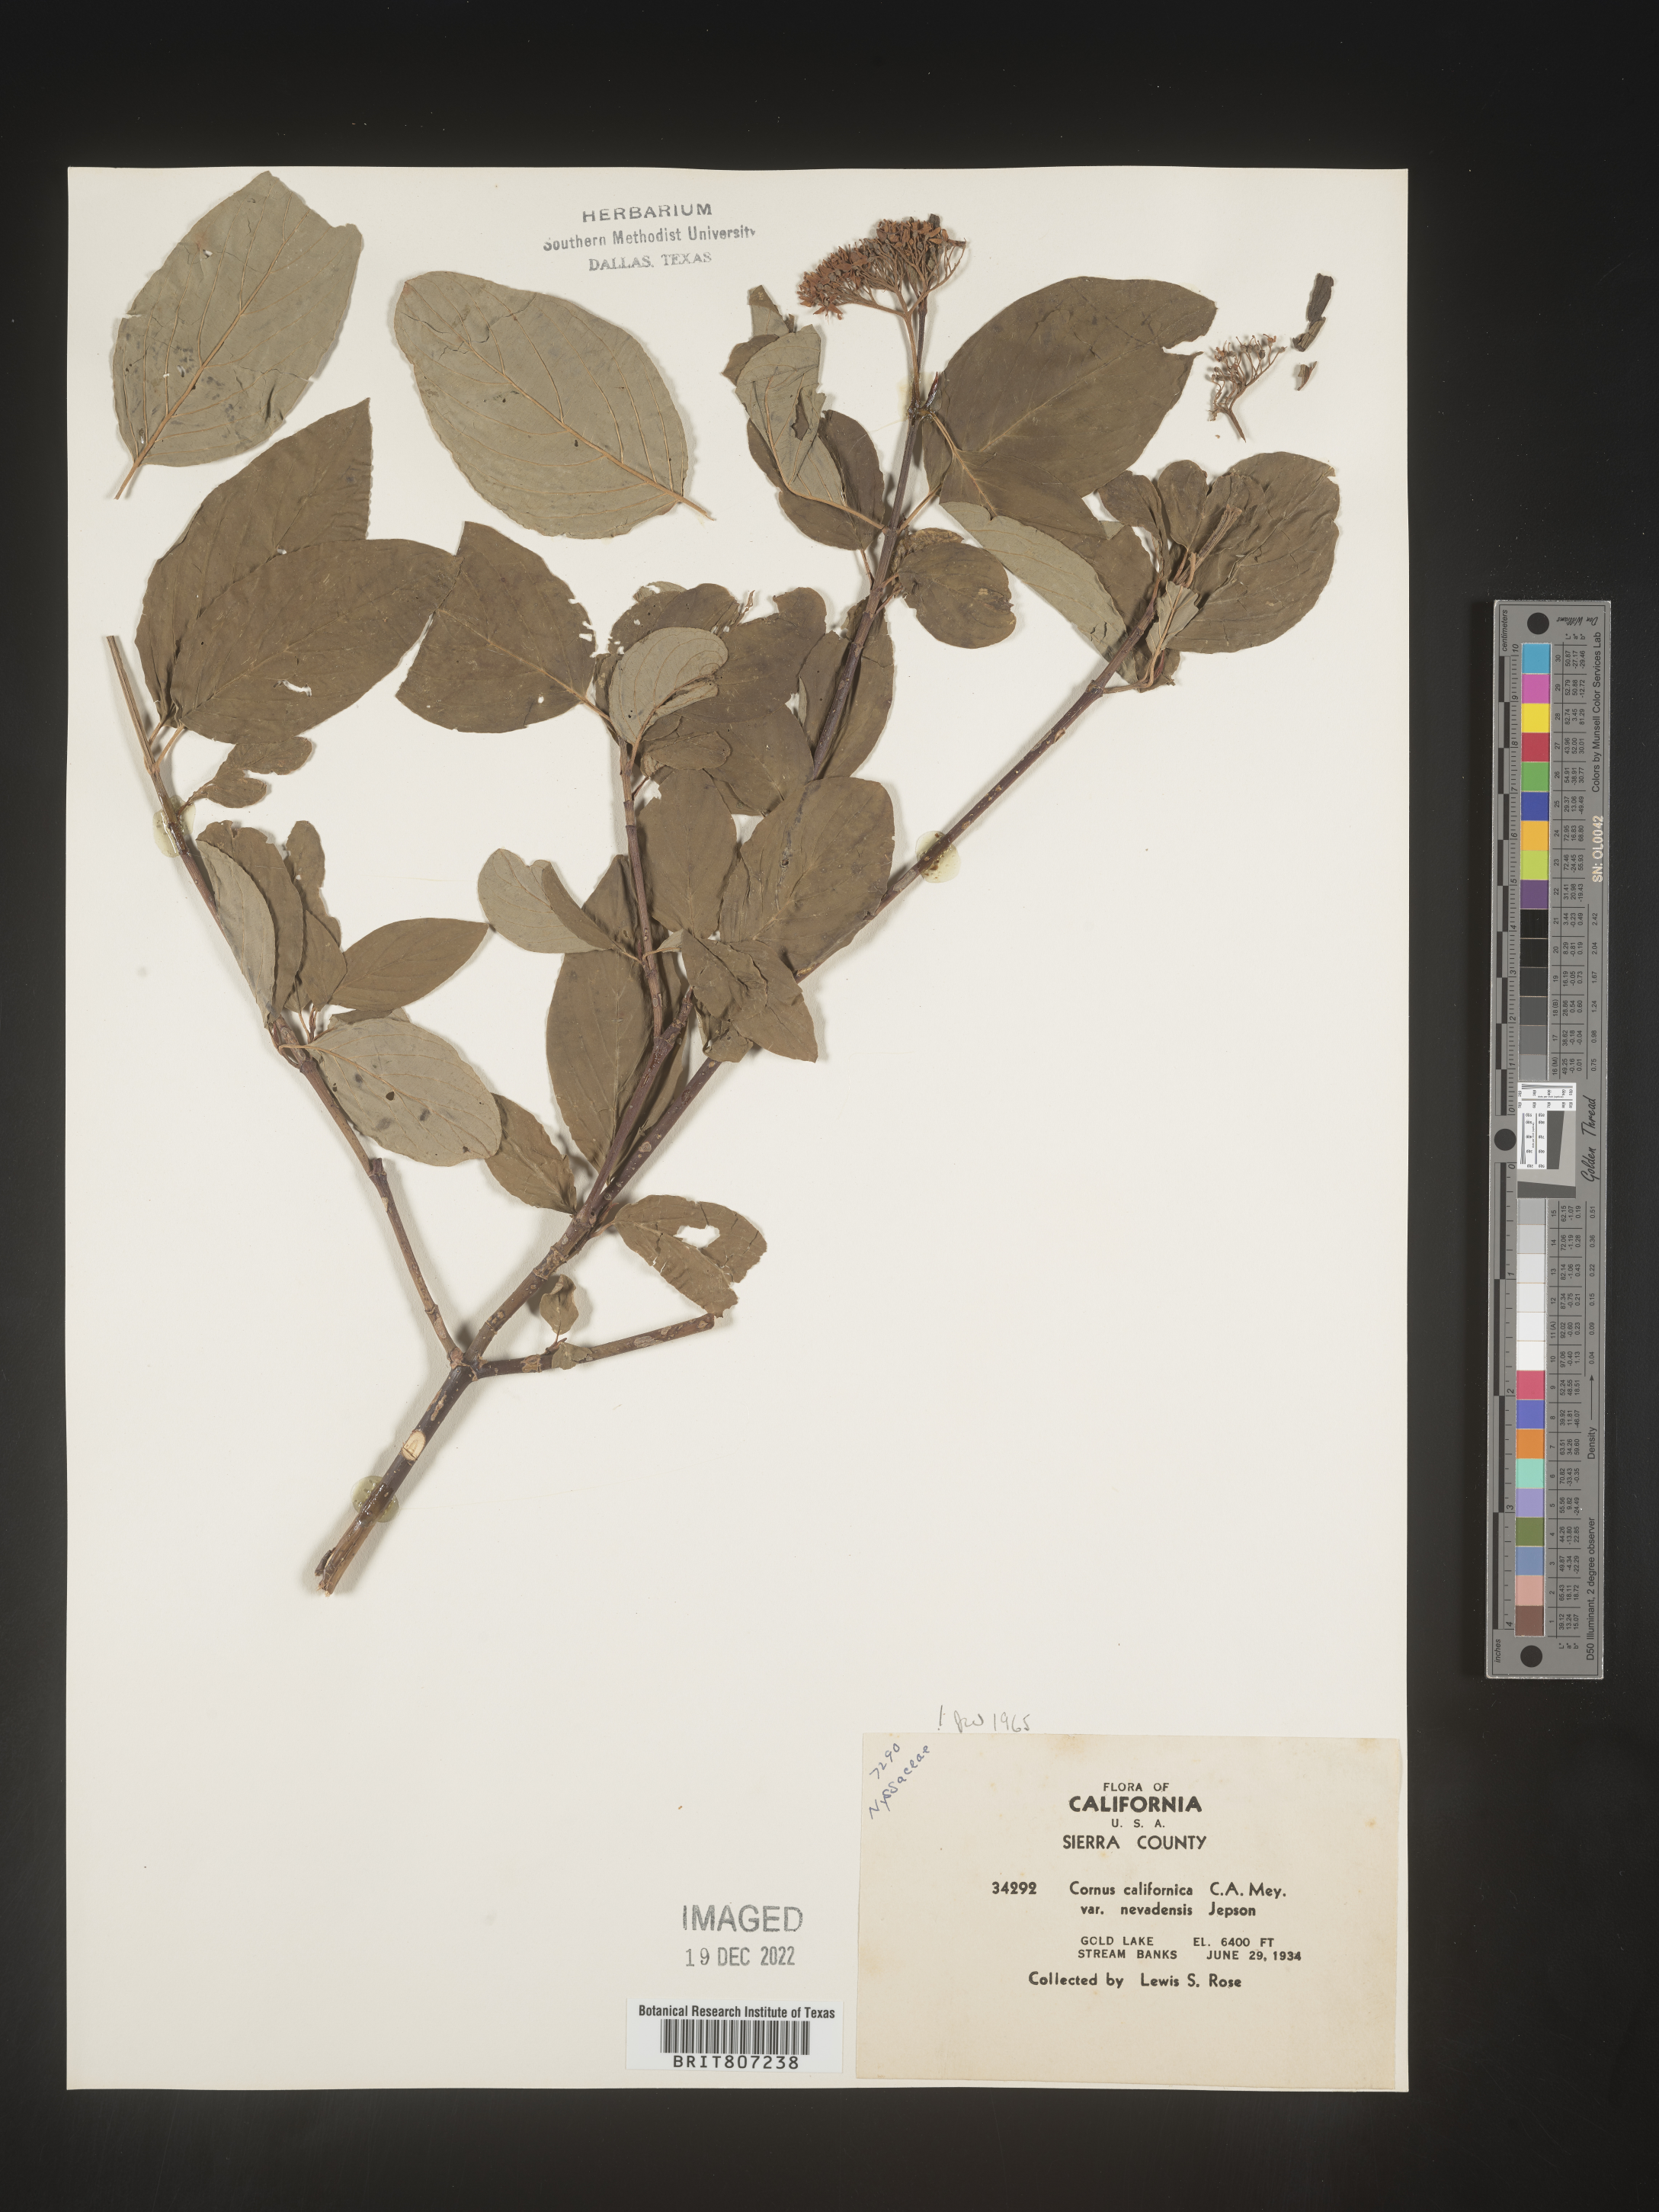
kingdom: Plantae
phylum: Tracheophyta
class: Magnoliopsida
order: Cornales
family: Cornaceae
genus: Cornus
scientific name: Cornus
